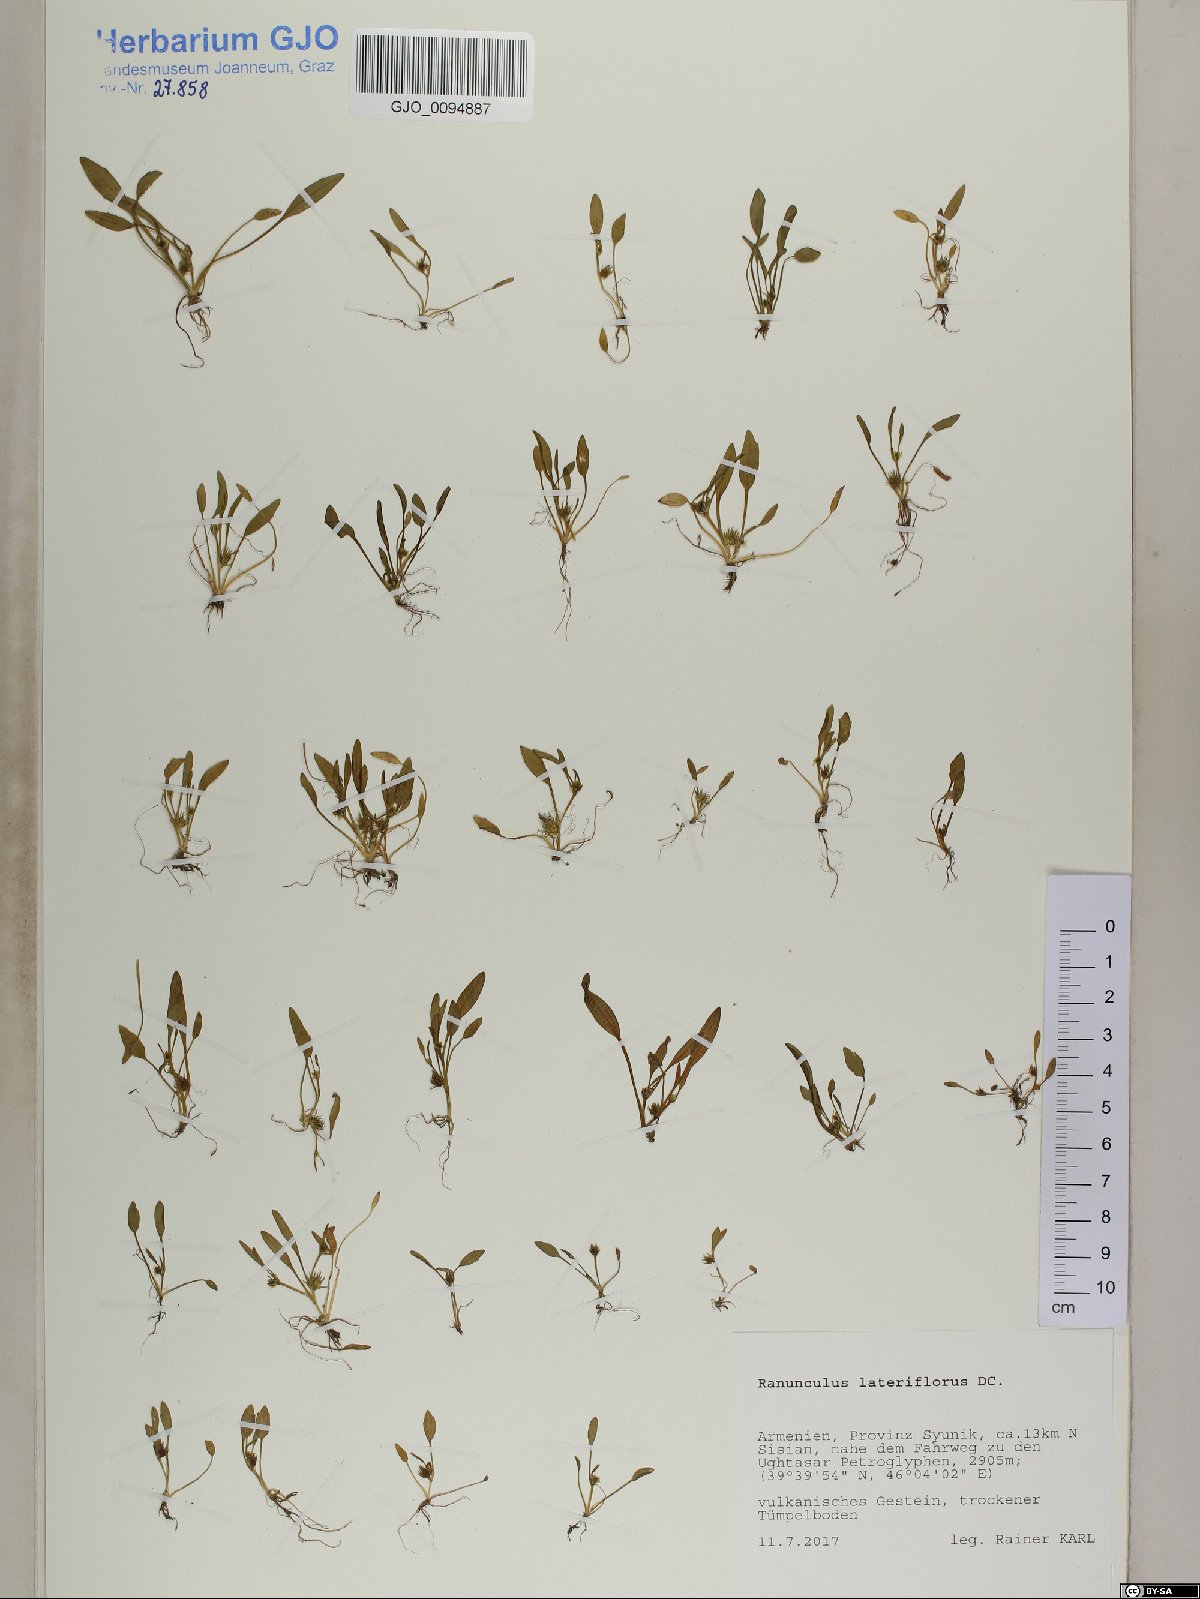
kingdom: Plantae
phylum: Tracheophyta
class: Magnoliopsida
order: Ranunculales
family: Ranunculaceae
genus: Ranunculus
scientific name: Ranunculus lateriflorus
